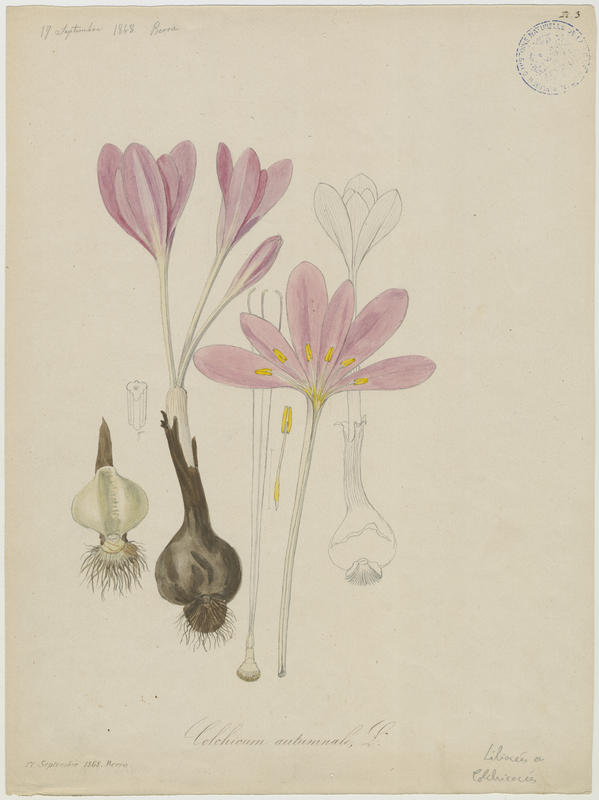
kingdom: Plantae
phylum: Tracheophyta
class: Liliopsida
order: Liliales
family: Colchicaceae
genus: Colchicum
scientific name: Colchicum autumnale
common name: Autumn crocus
